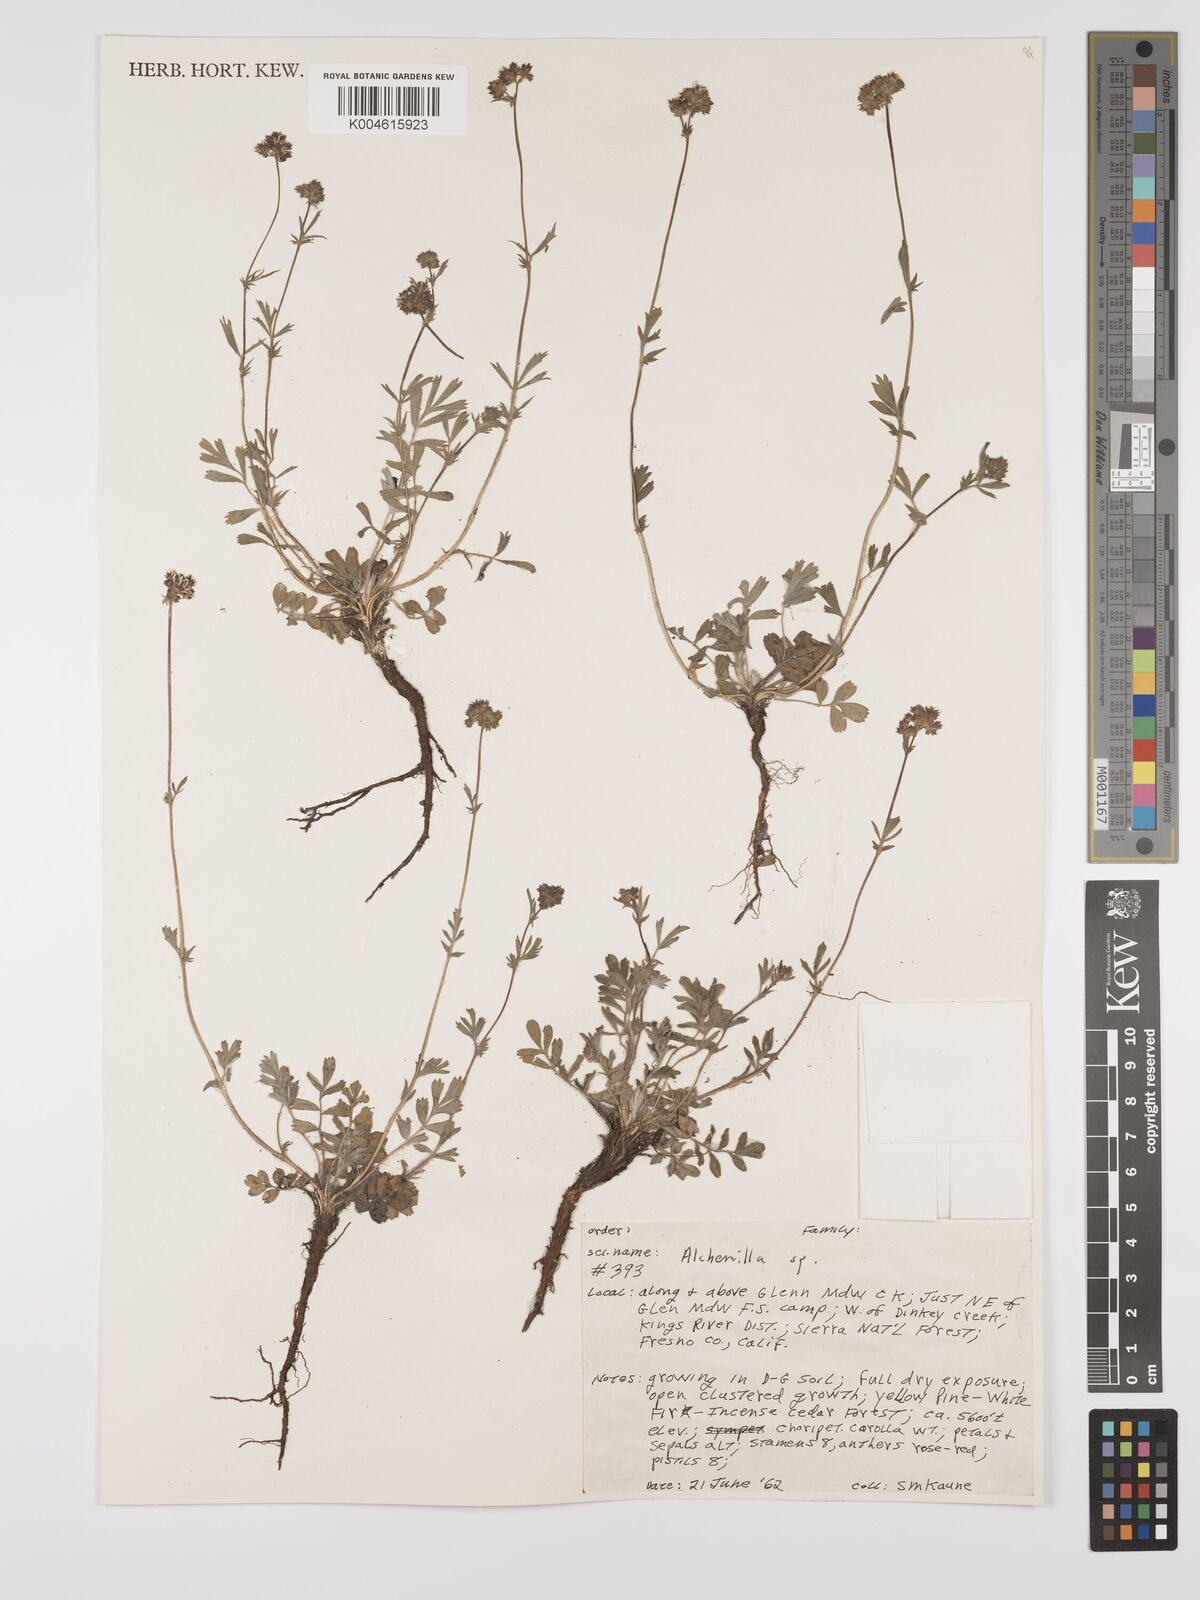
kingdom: Plantae
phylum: Tracheophyta
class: Magnoliopsida
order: Rosales
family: Rosaceae
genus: Alchemilla
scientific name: Alchemilla
